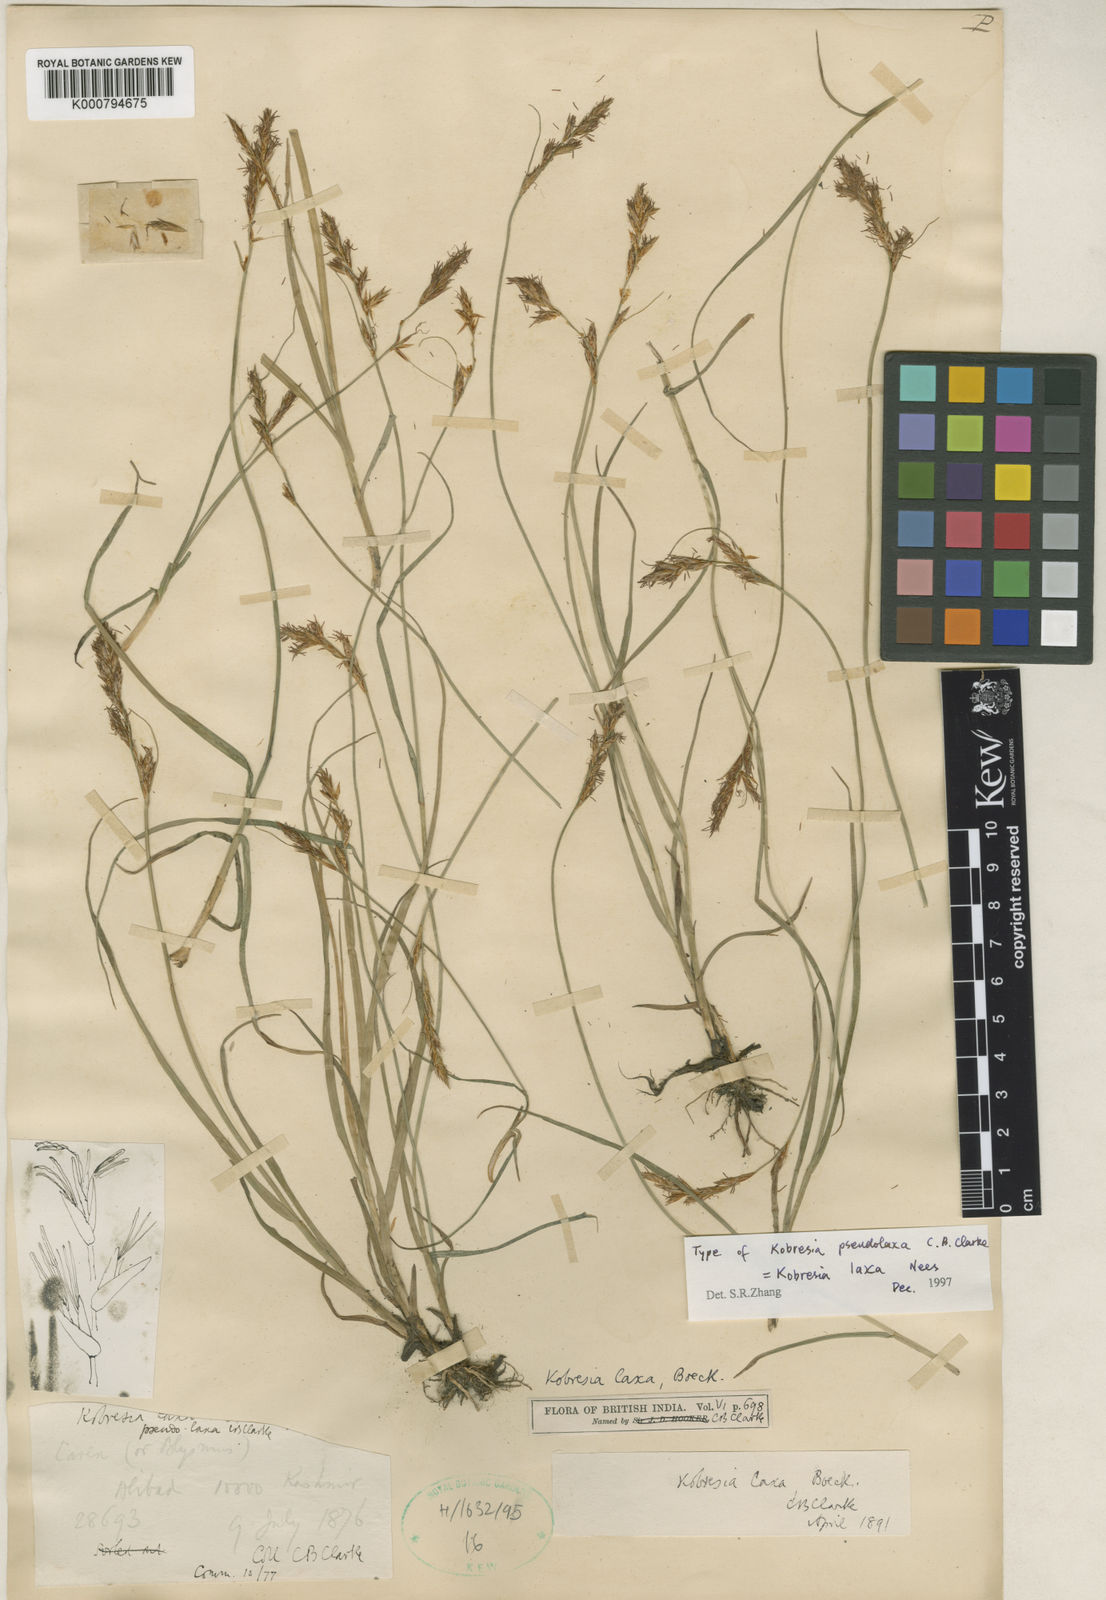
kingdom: Plantae
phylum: Tracheophyta
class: Liliopsida
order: Poales
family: Cyperaceae
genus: Carex
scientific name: Carex pseudolaxa
